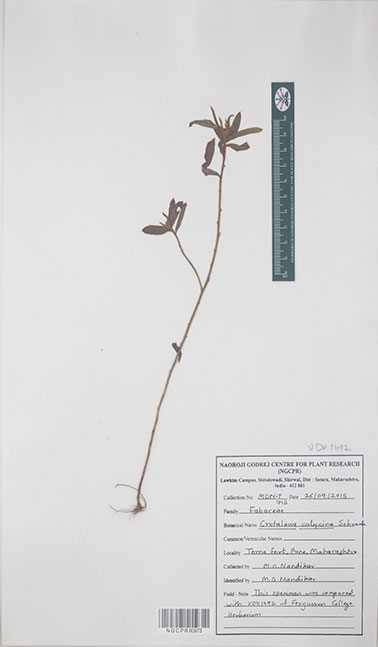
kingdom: Plantae
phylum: Tracheophyta
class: Magnoliopsida
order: Fabales
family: Fabaceae
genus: Crotalaria
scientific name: Crotalaria calycina
